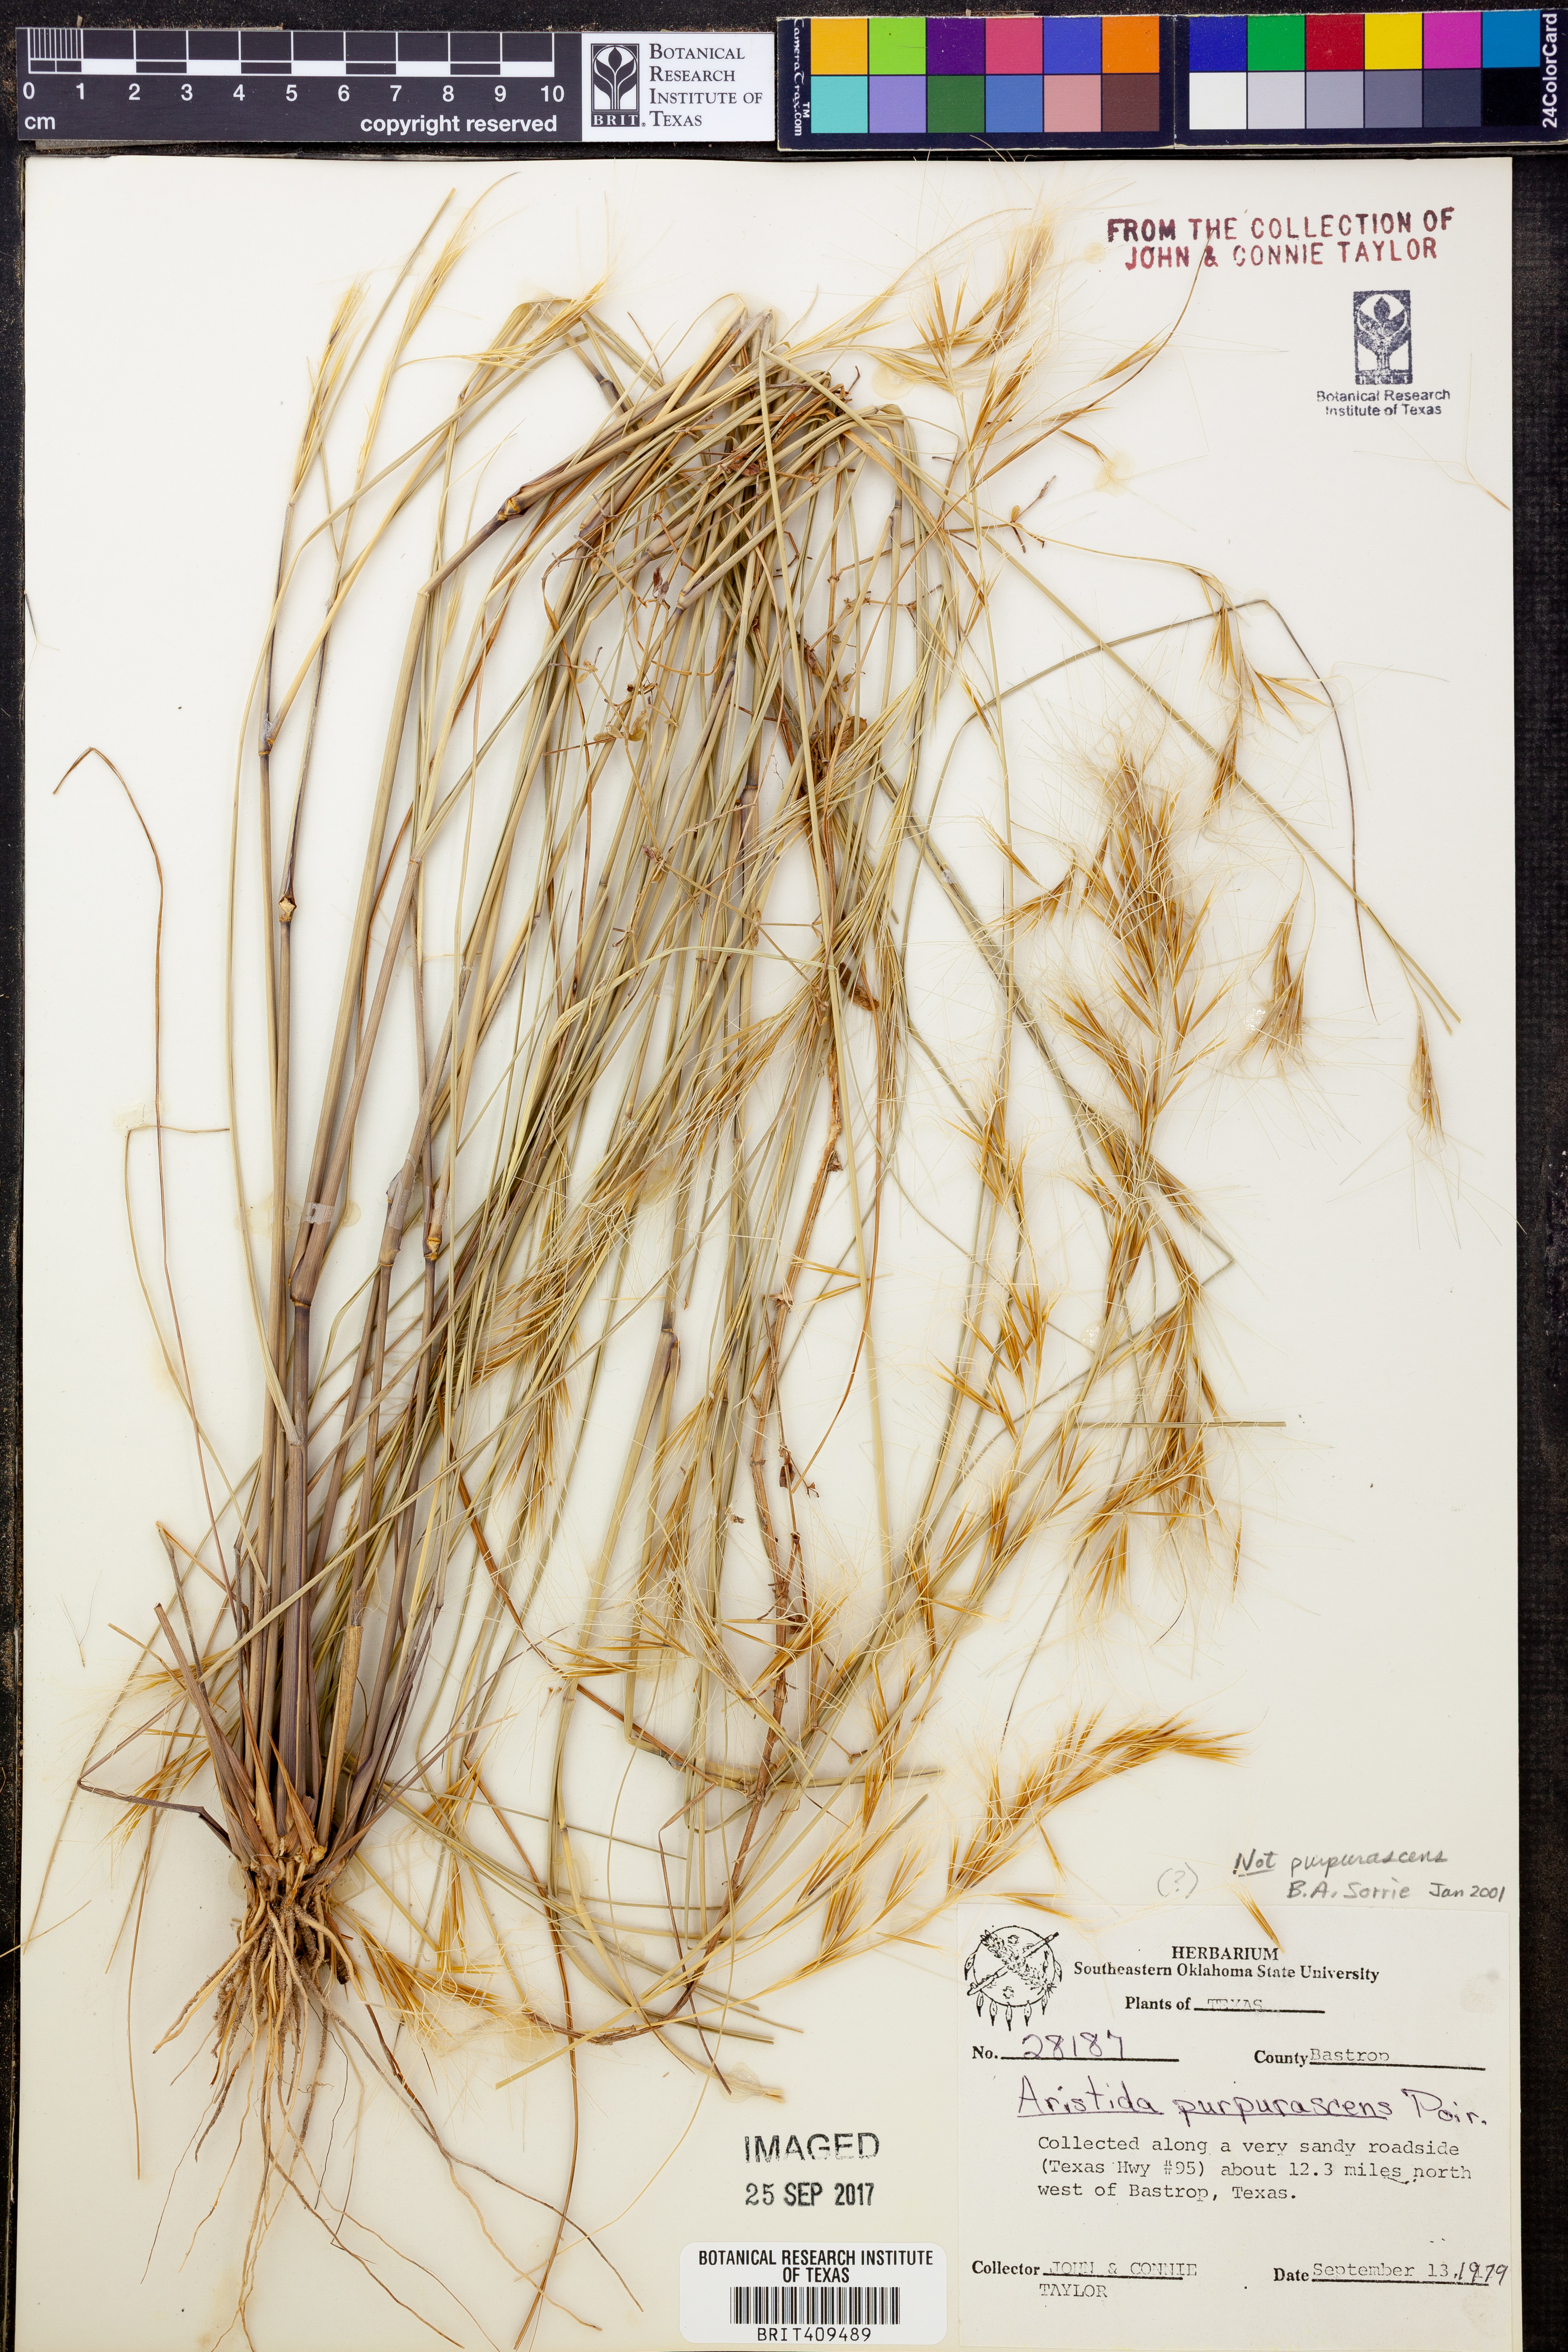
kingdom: Plantae
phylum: Tracheophyta
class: Liliopsida
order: Poales
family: Poaceae
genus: Aristida
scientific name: Aristida
